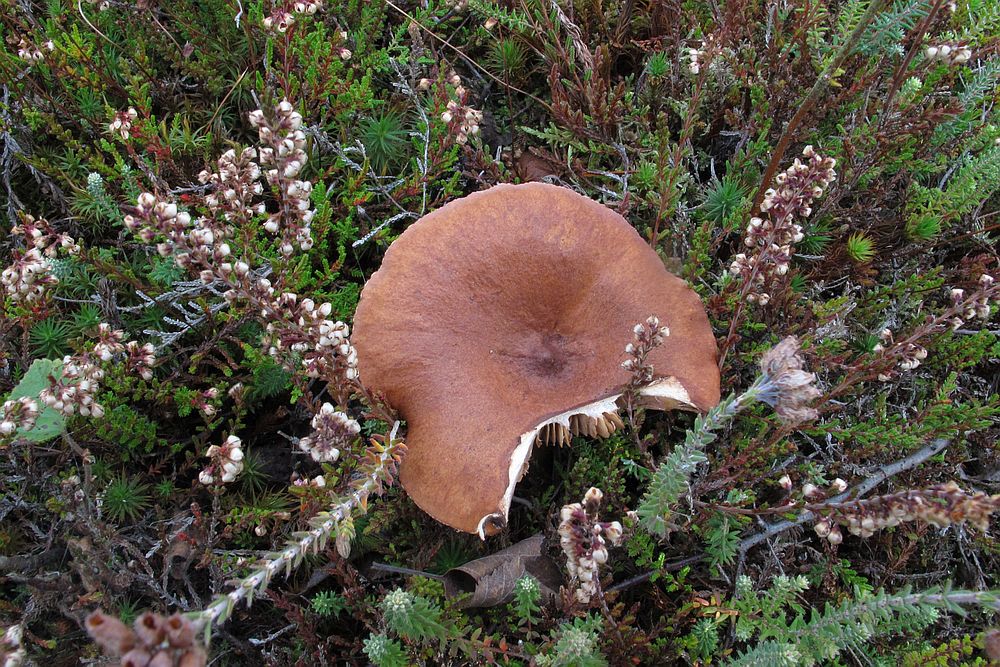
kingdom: Fungi
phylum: Basidiomycota
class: Agaricomycetes
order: Russulales
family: Russulaceae
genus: Lactarius
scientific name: Lactarius rufus
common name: rødbrun mælkehat
